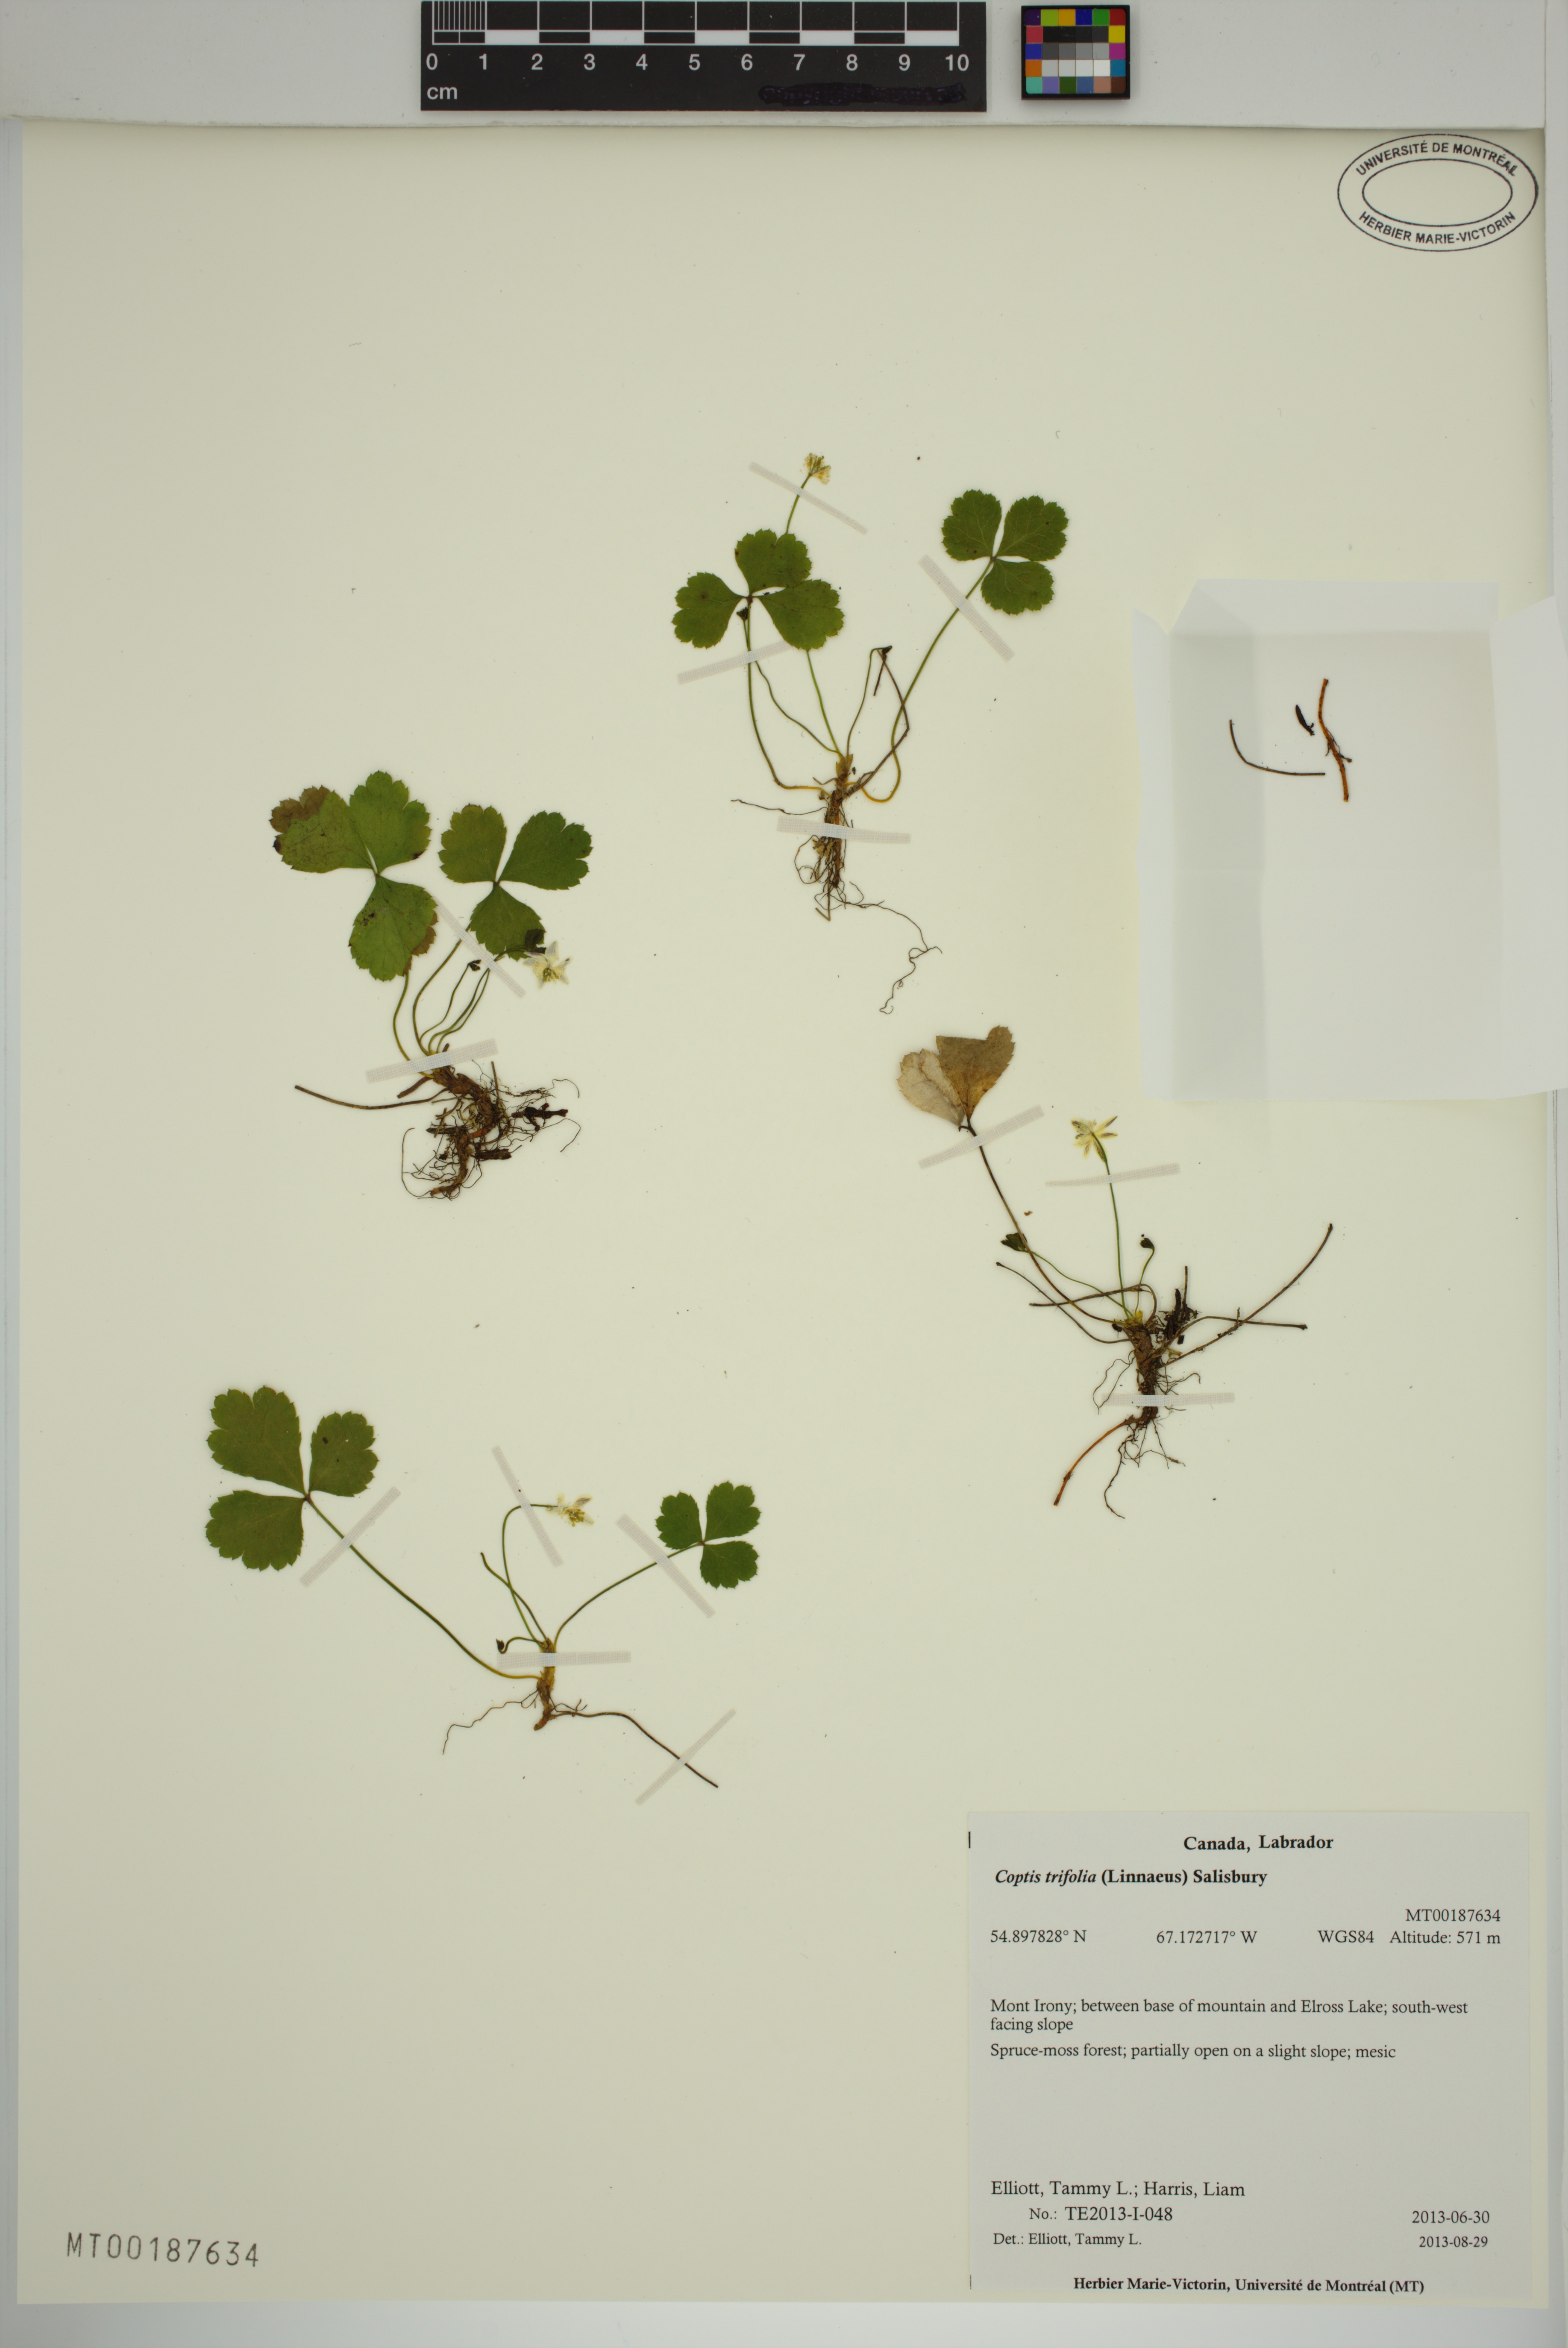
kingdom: Plantae
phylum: Tracheophyta
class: Magnoliopsida
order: Ranunculales
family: Ranunculaceae
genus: Coptis
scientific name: Coptis trifolia
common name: Canker-root
